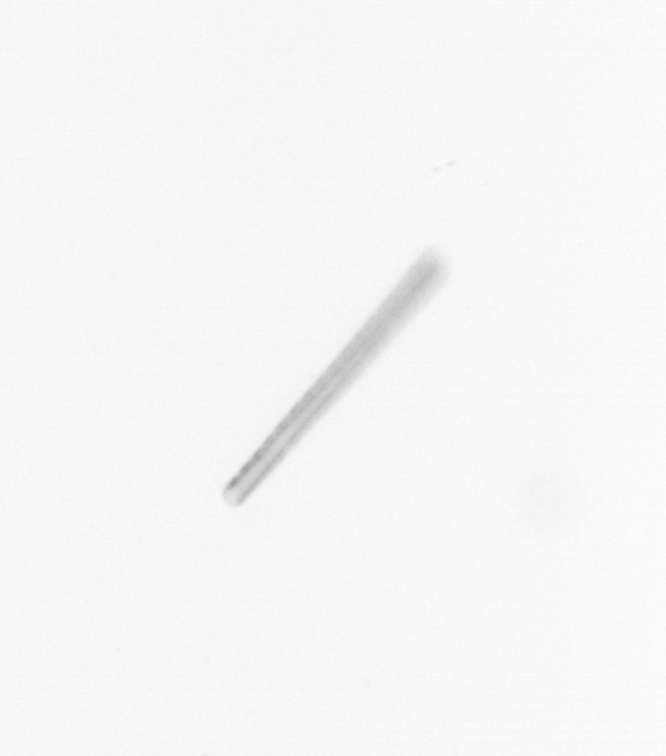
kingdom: Chromista
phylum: Ochrophyta
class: Bacillariophyceae
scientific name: Bacillariophyceae
